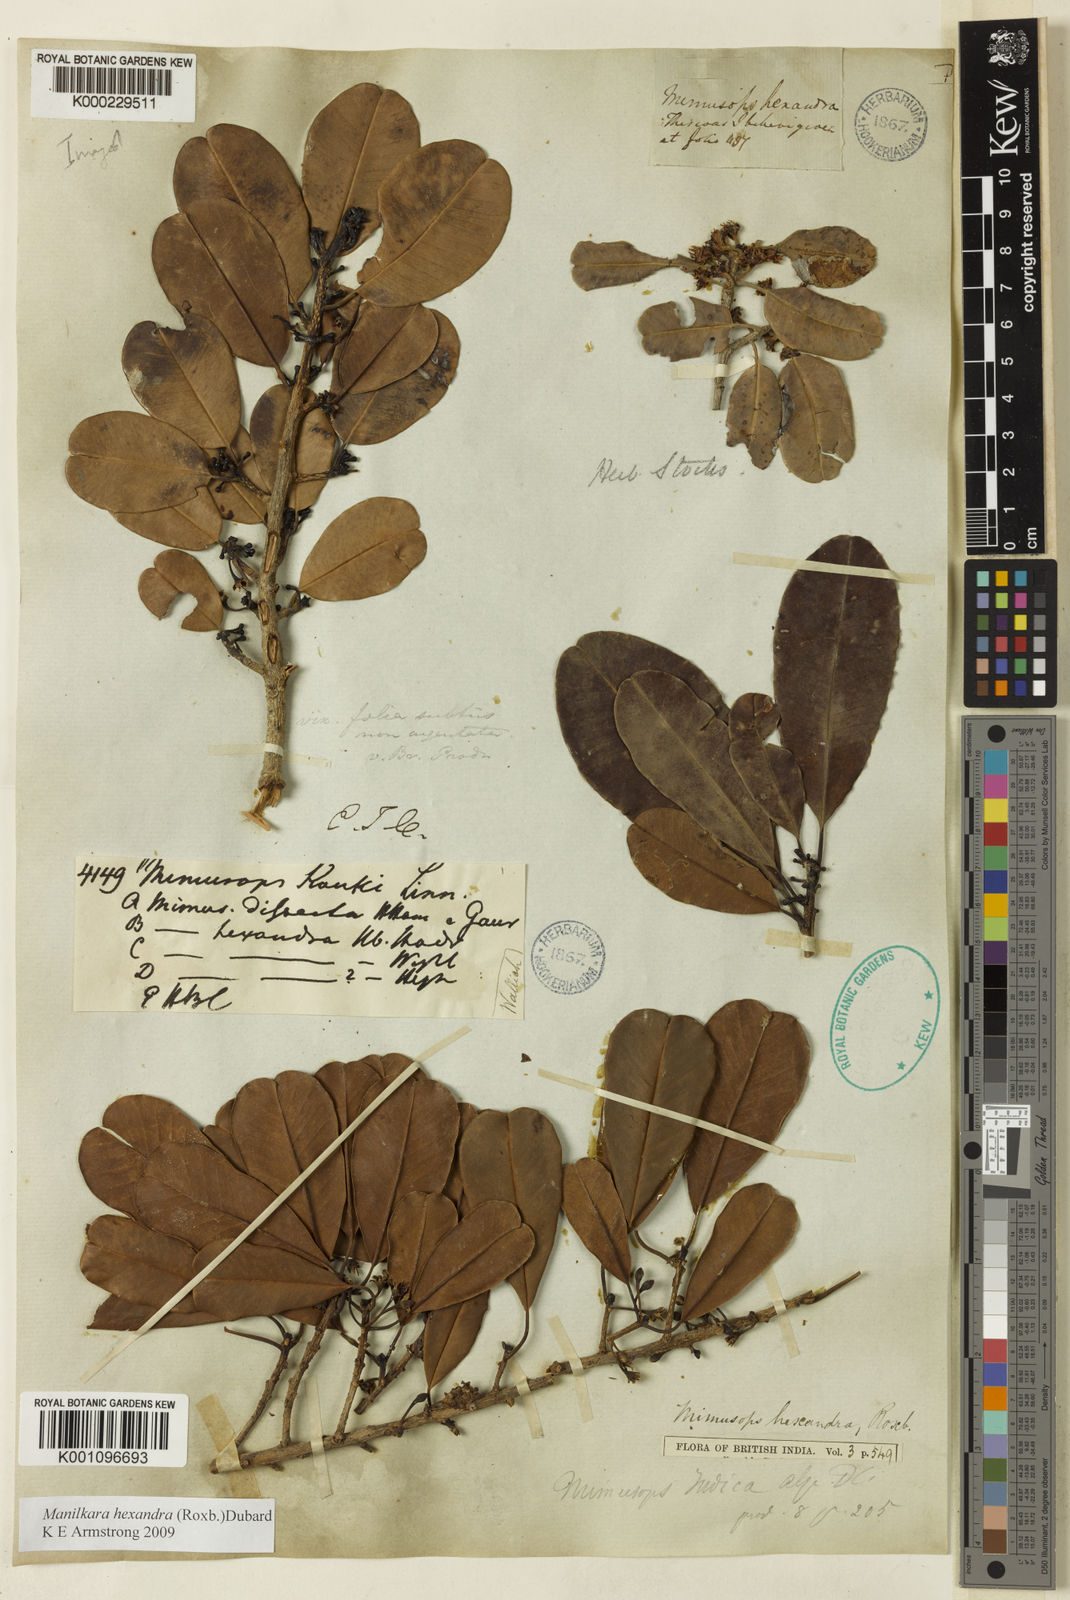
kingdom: Plantae
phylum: Tracheophyta
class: Magnoliopsida
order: Ericales
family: Sapotaceae
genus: Manilkara
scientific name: Manilkara hexandra
